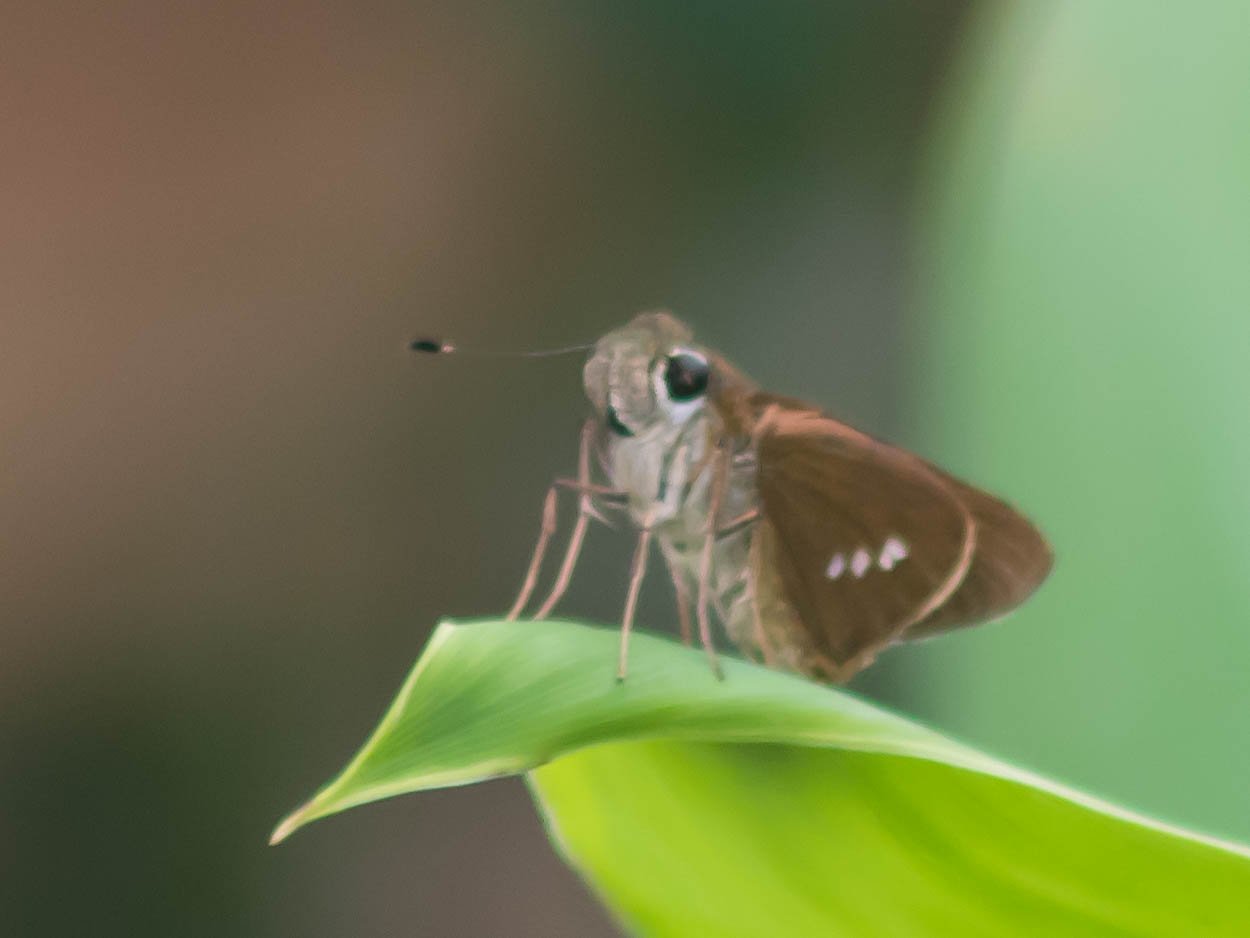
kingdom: Animalia
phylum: Arthropoda
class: Insecta
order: Lepidoptera
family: Hesperiidae
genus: Calpodes
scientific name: Calpodes ethlius
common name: Brazilian Skipper
